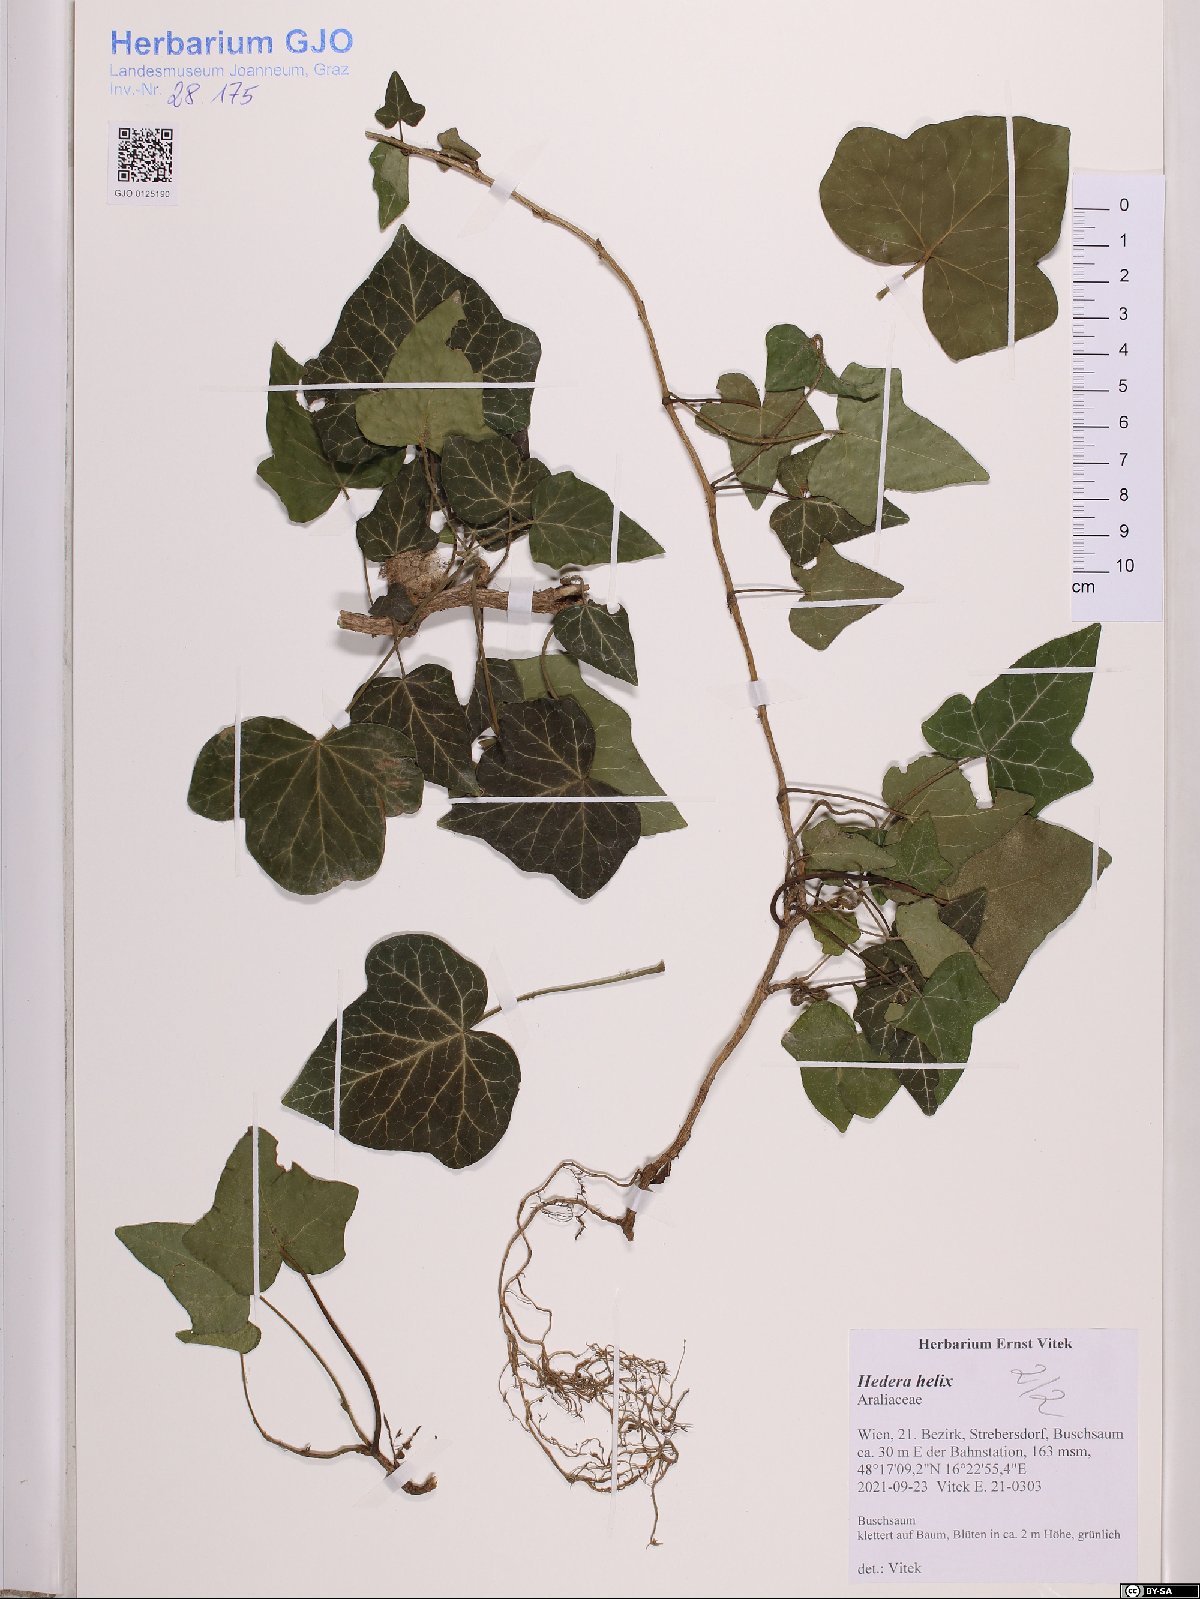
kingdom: Plantae
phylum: Tracheophyta
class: Magnoliopsida
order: Apiales
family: Araliaceae
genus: Hedera
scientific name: Hedera helix
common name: Ivy
